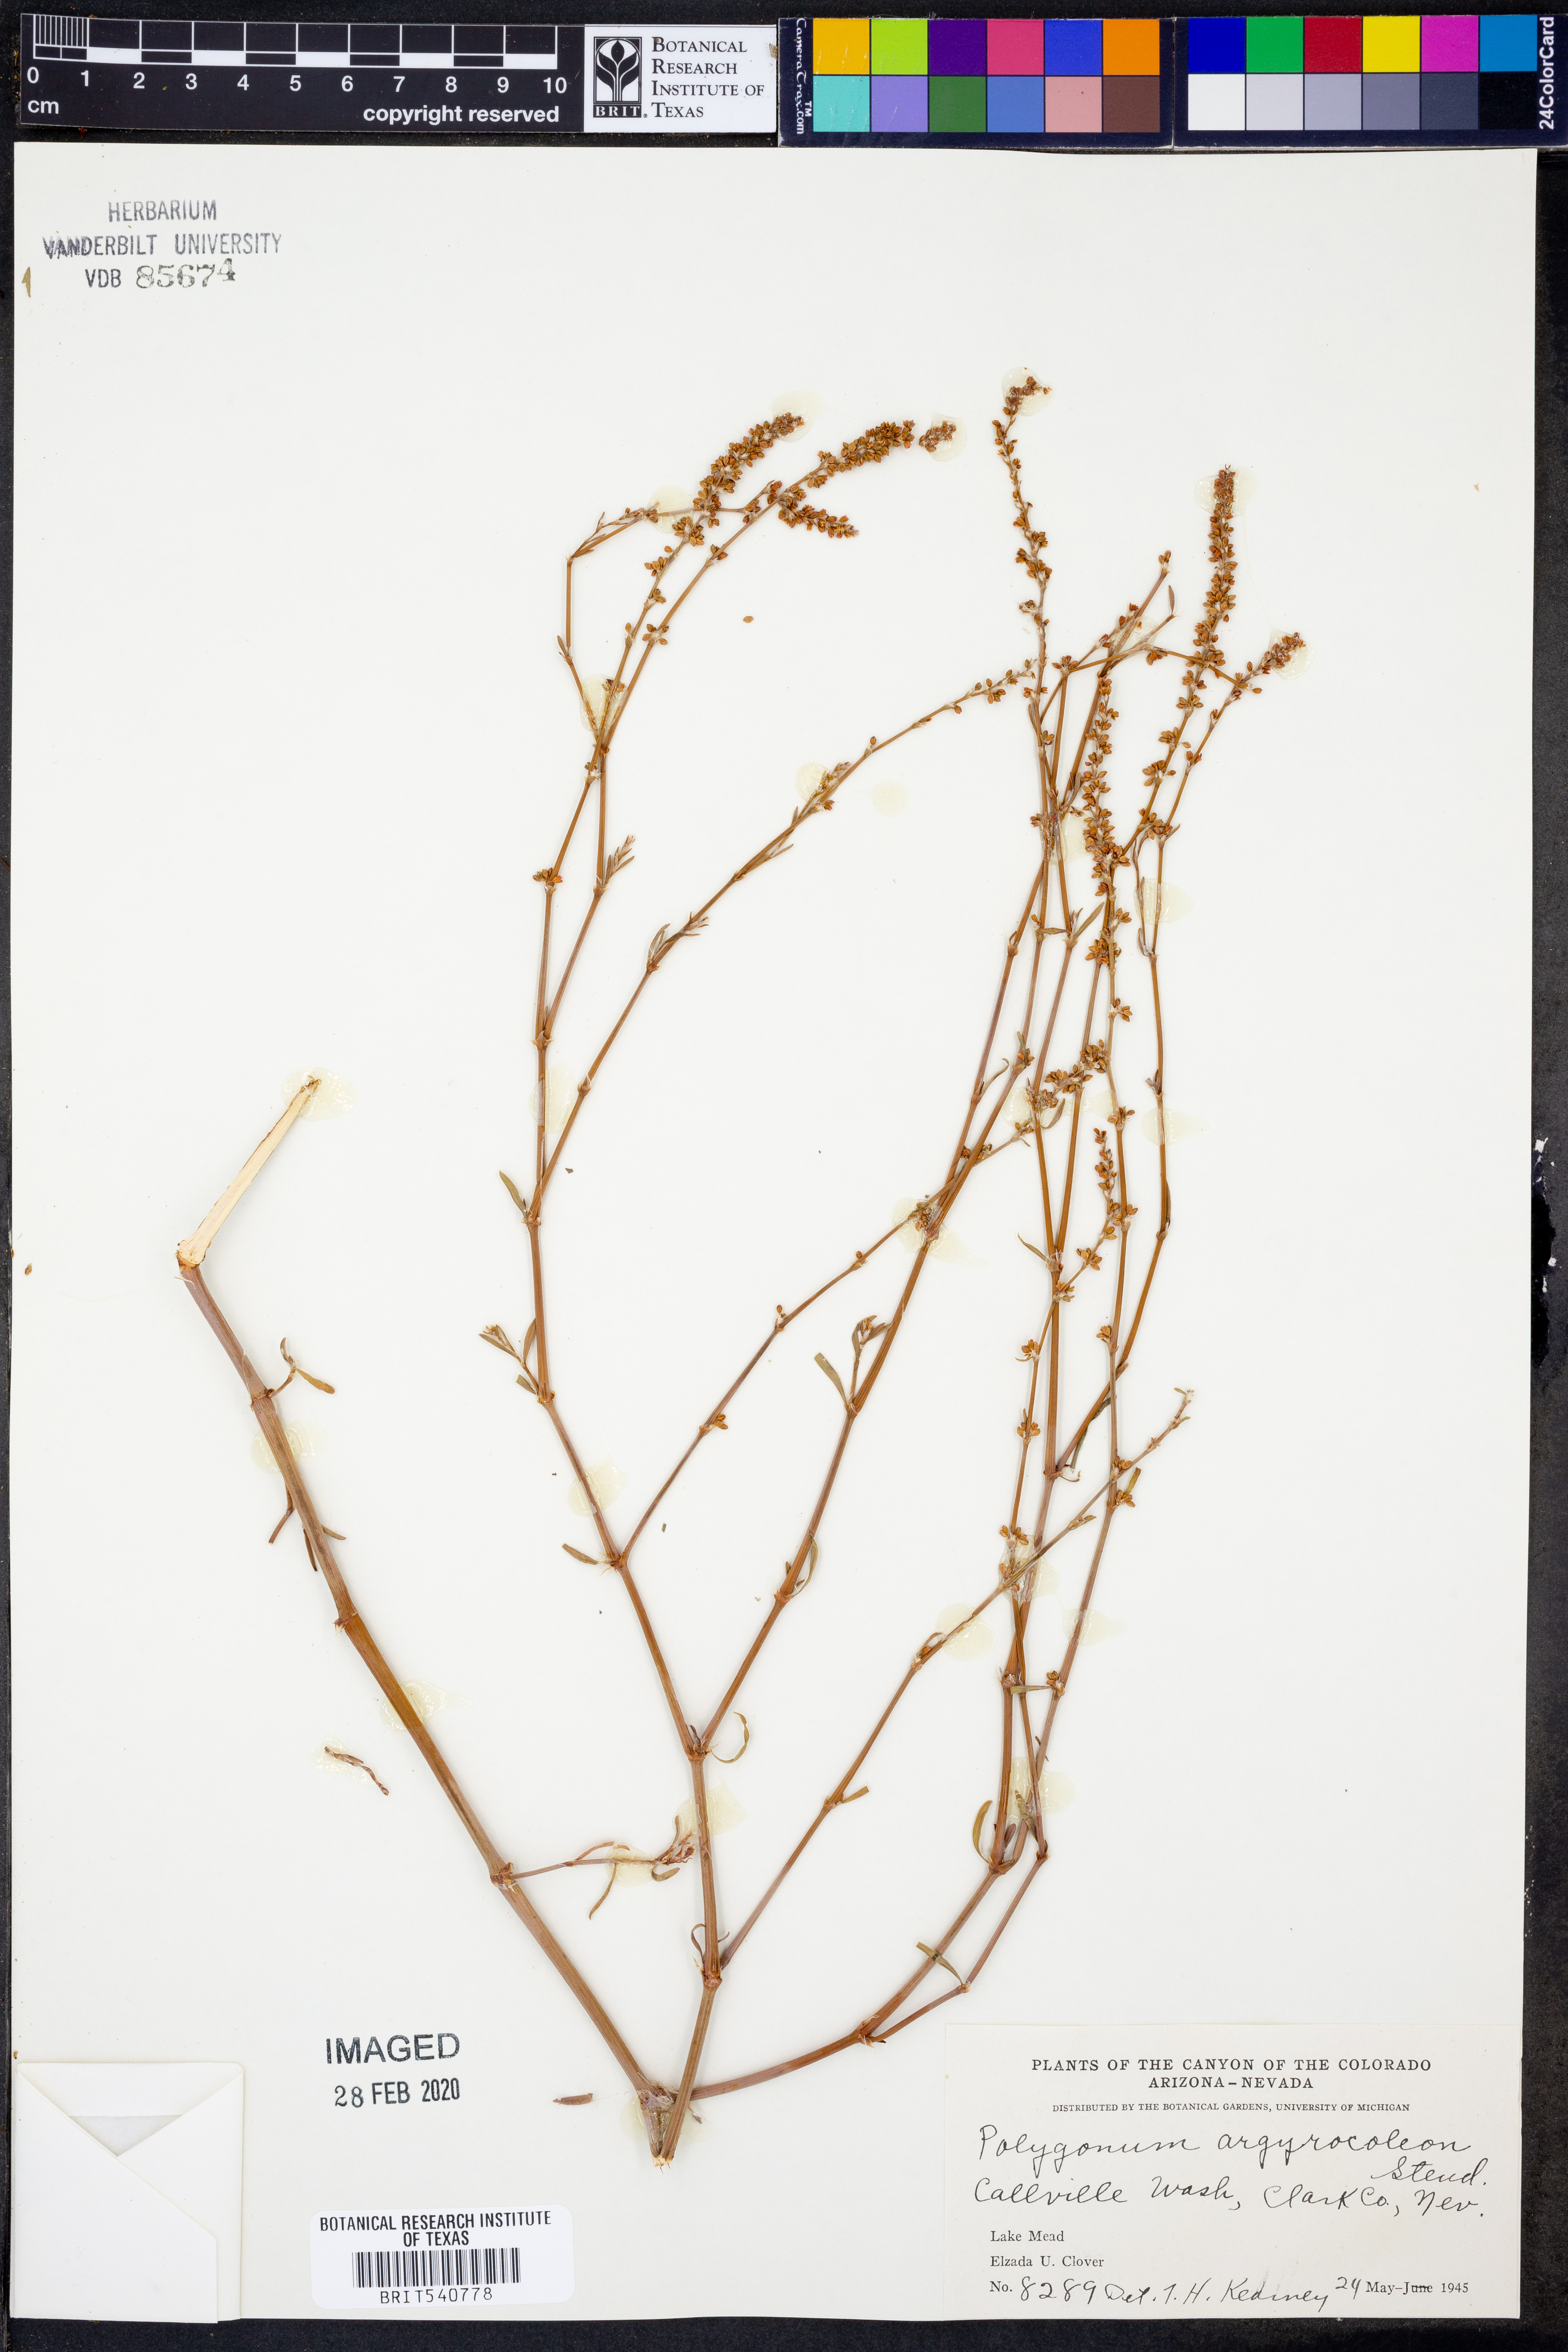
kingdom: Plantae
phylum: Tracheophyta
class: Magnoliopsida
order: Caryophyllales
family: Polygonaceae
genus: Polygonum
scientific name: Polygonum argyrocoleum
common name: Silversheath knotweed
